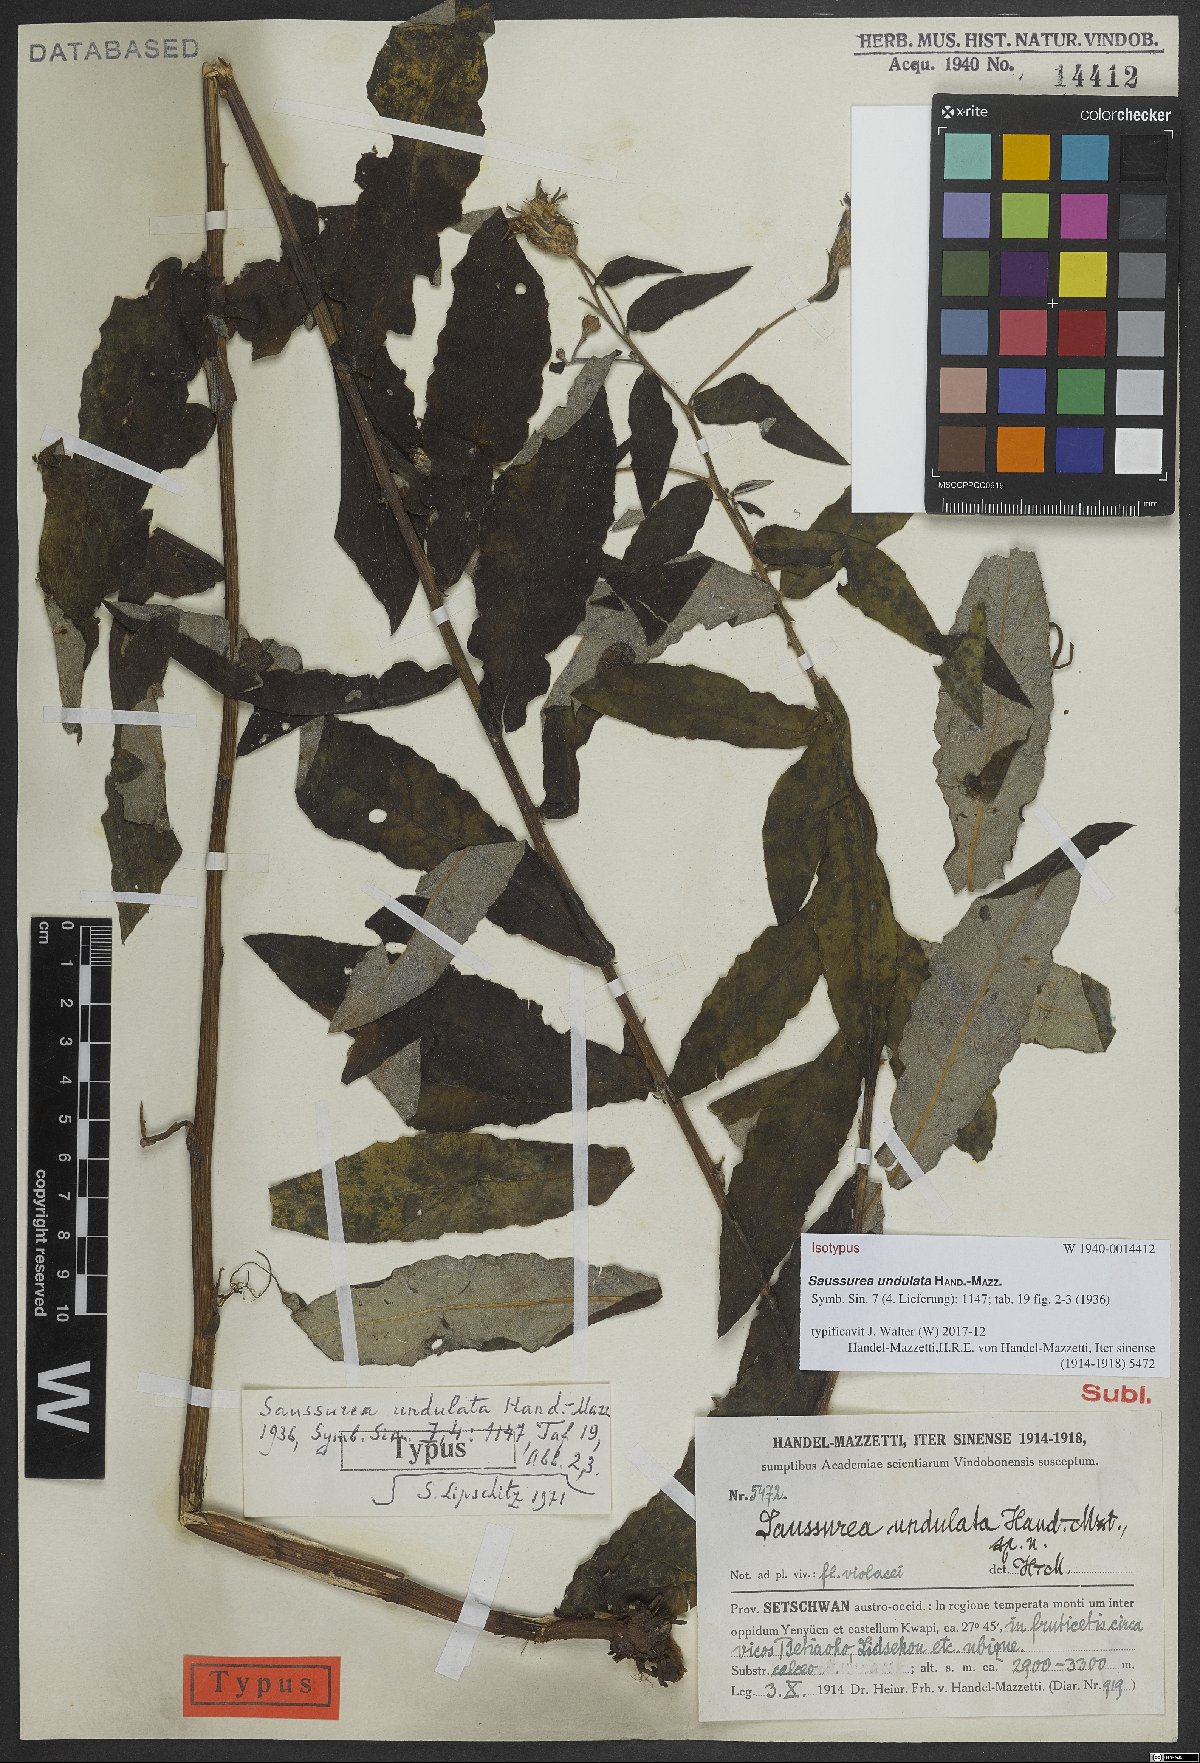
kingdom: Plantae
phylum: Tracheophyta
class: Magnoliopsida
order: Asterales
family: Asteraceae
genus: Saussurea
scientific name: Saussurea undulata
